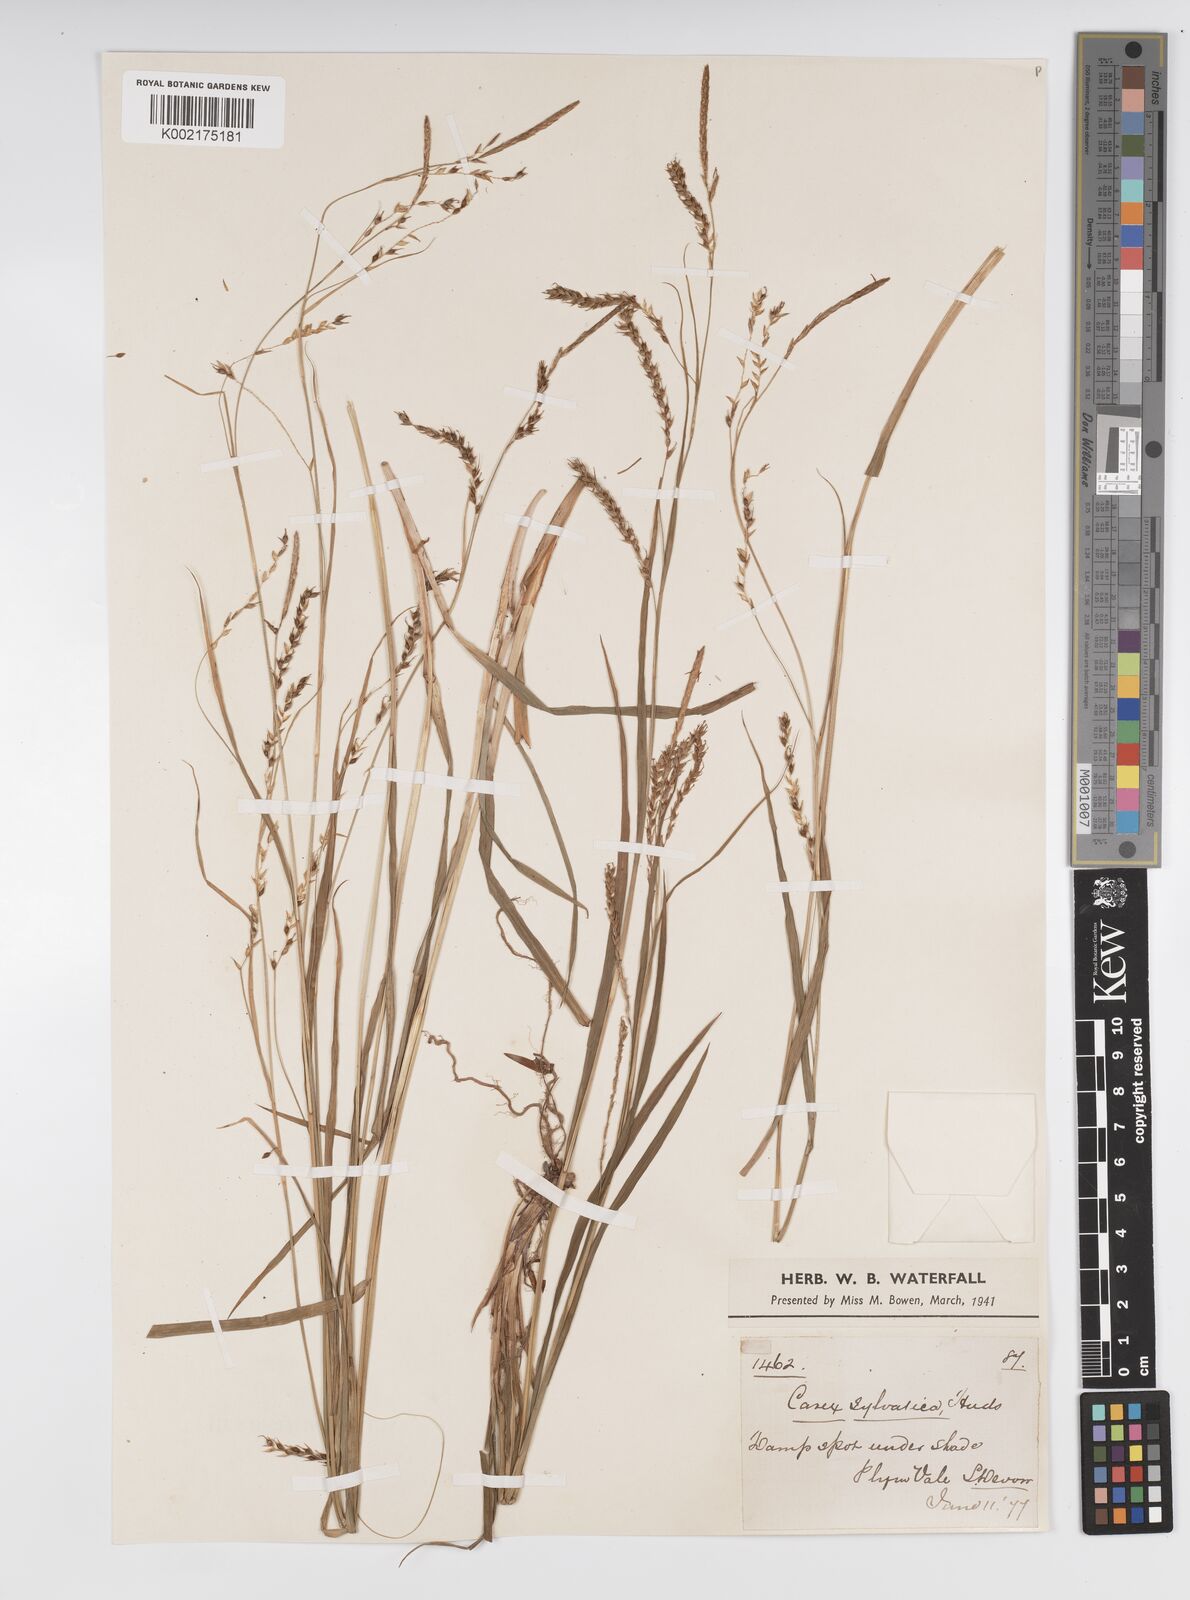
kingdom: Plantae
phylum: Tracheophyta
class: Liliopsida
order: Poales
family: Cyperaceae
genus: Carex
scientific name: Carex sylvatica
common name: Wood-sedge
